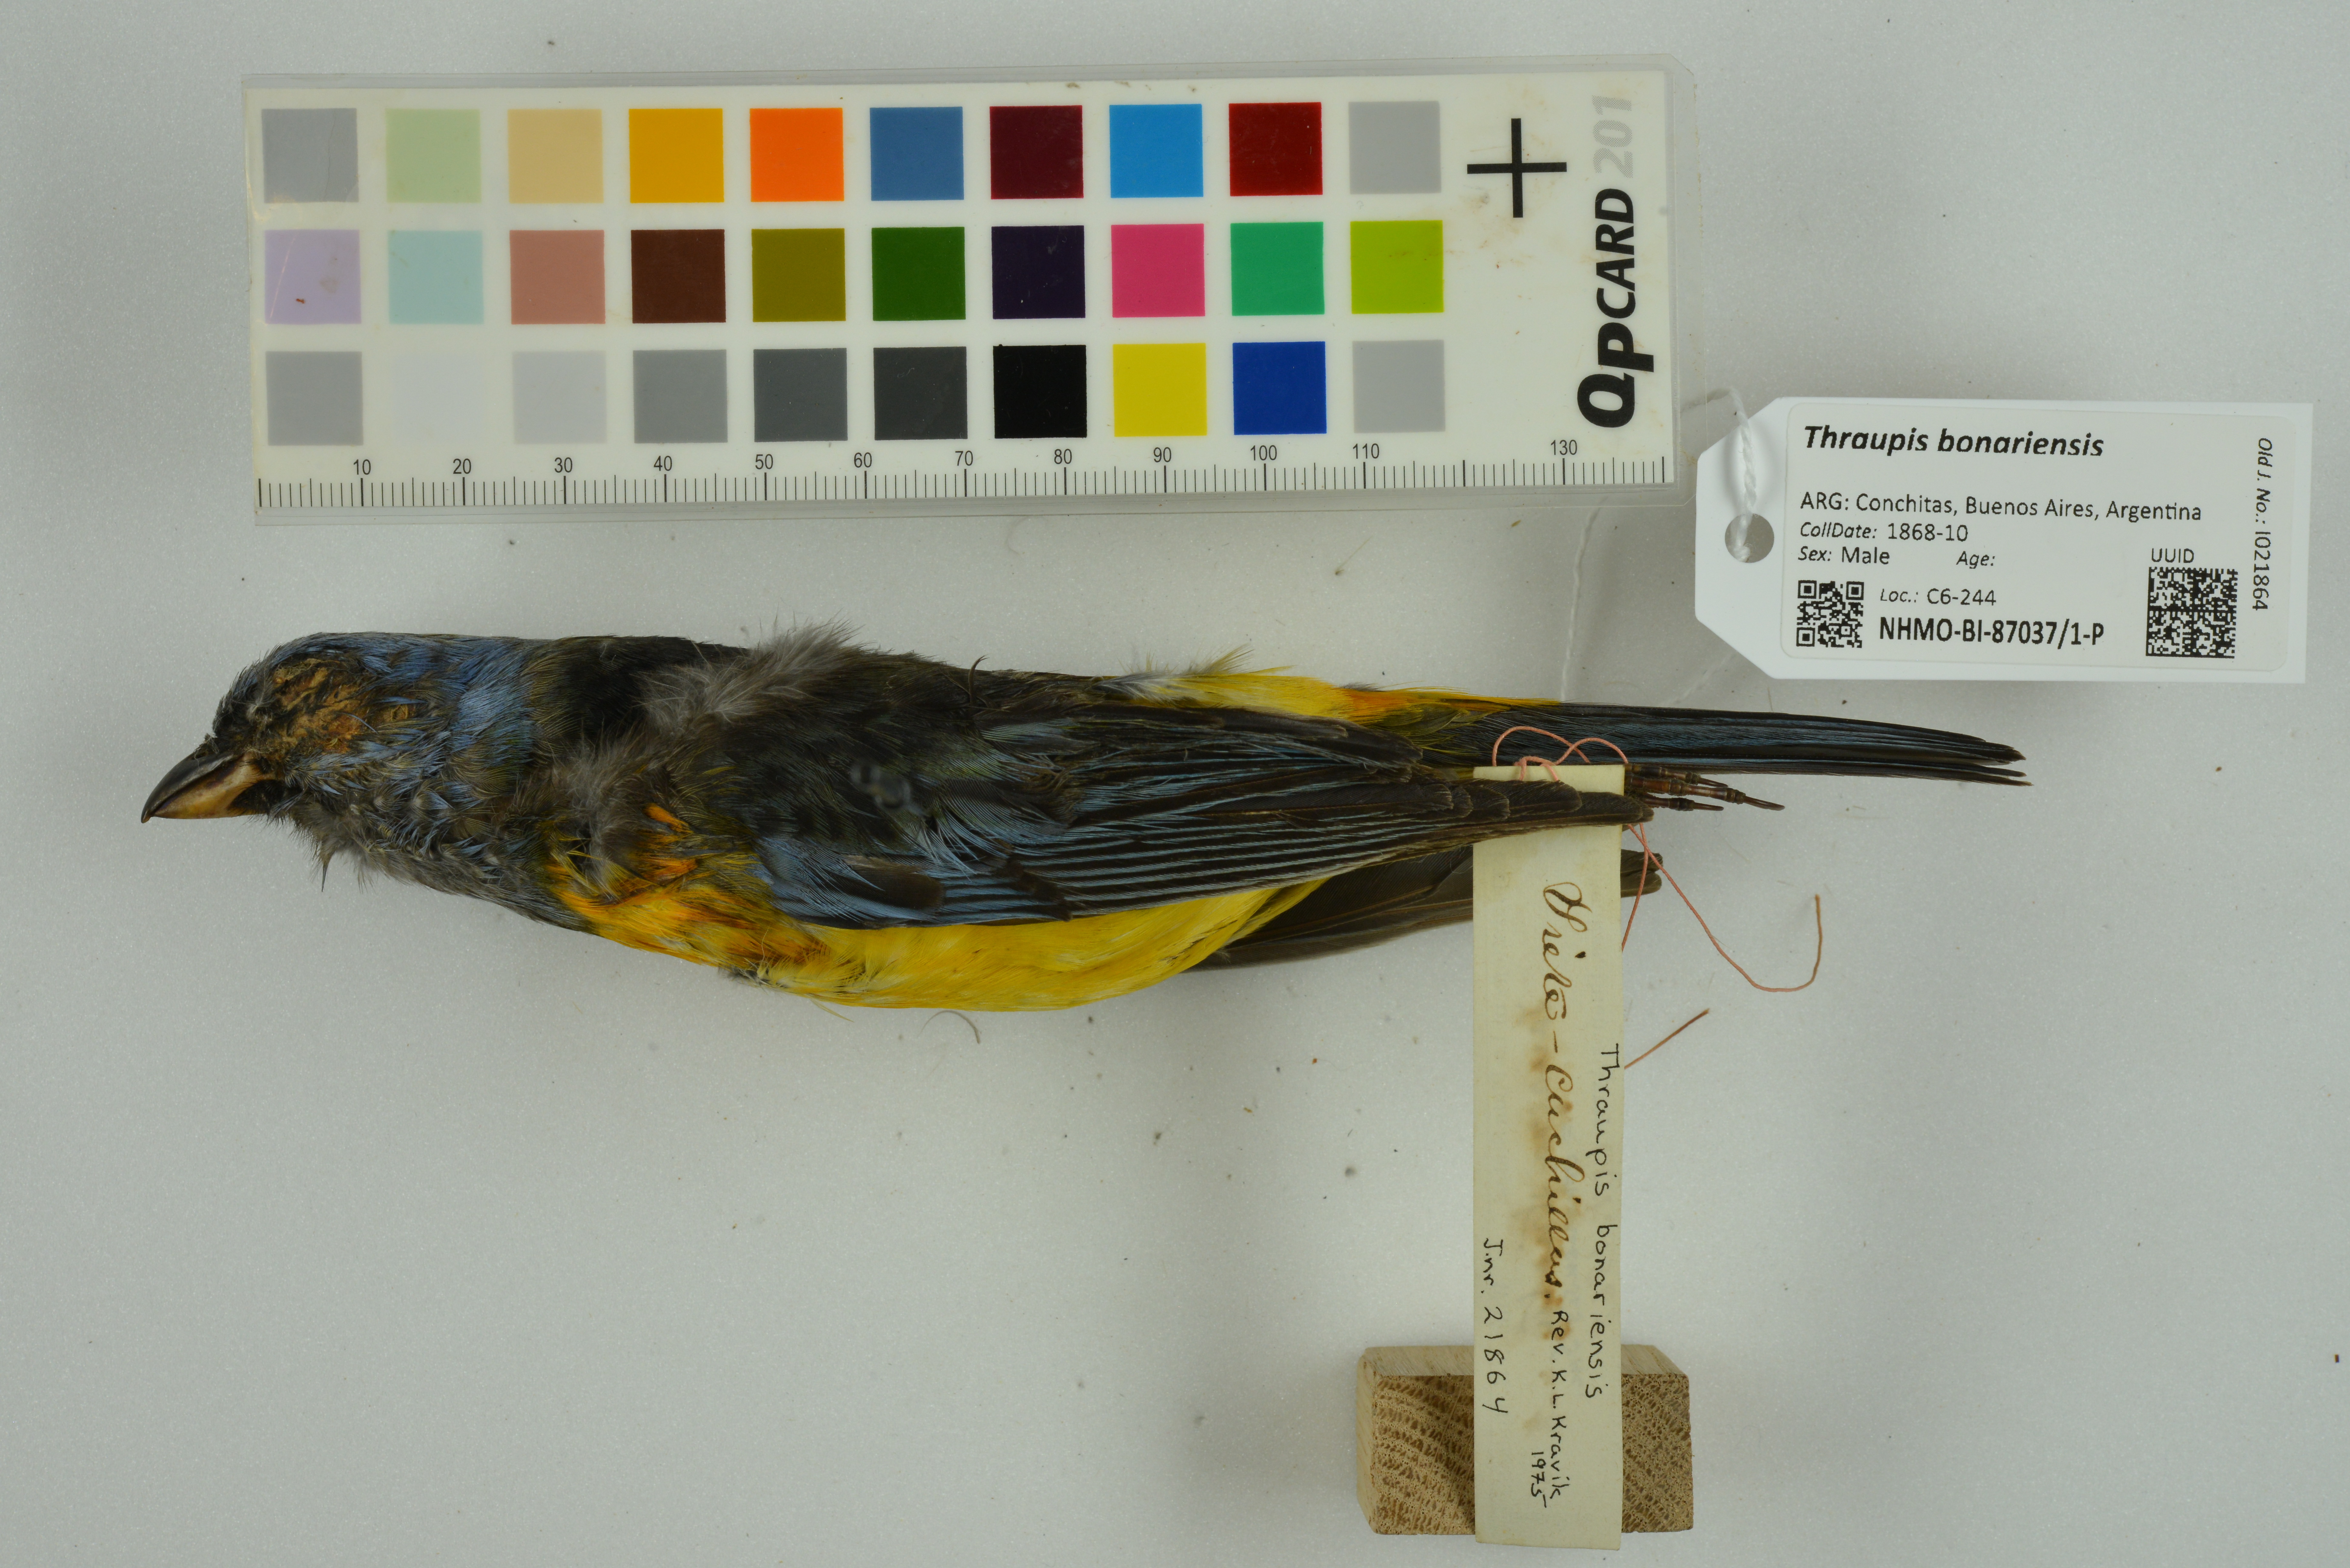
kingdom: Animalia
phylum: Chordata
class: Aves
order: Passeriformes
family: Thraupidae
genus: Rauenia
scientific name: Rauenia bonariensis
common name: Blue-and-yellow tanager
